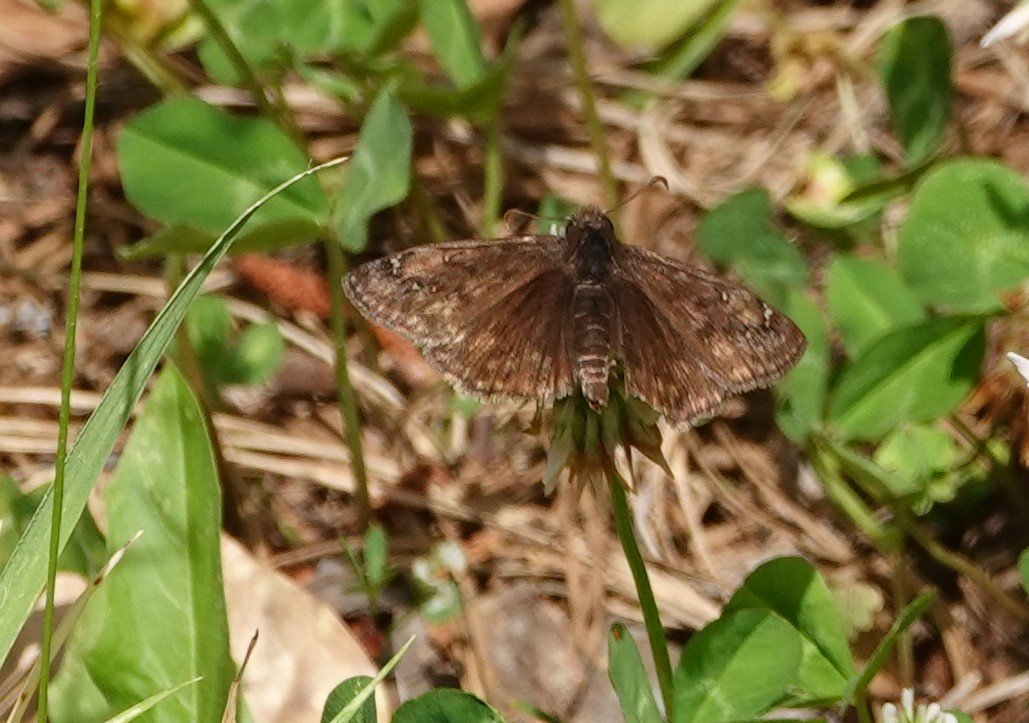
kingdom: Animalia
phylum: Arthropoda
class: Insecta
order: Lepidoptera
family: Hesperiidae
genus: Gesta
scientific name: Gesta
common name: Juvenal's Duskywing
